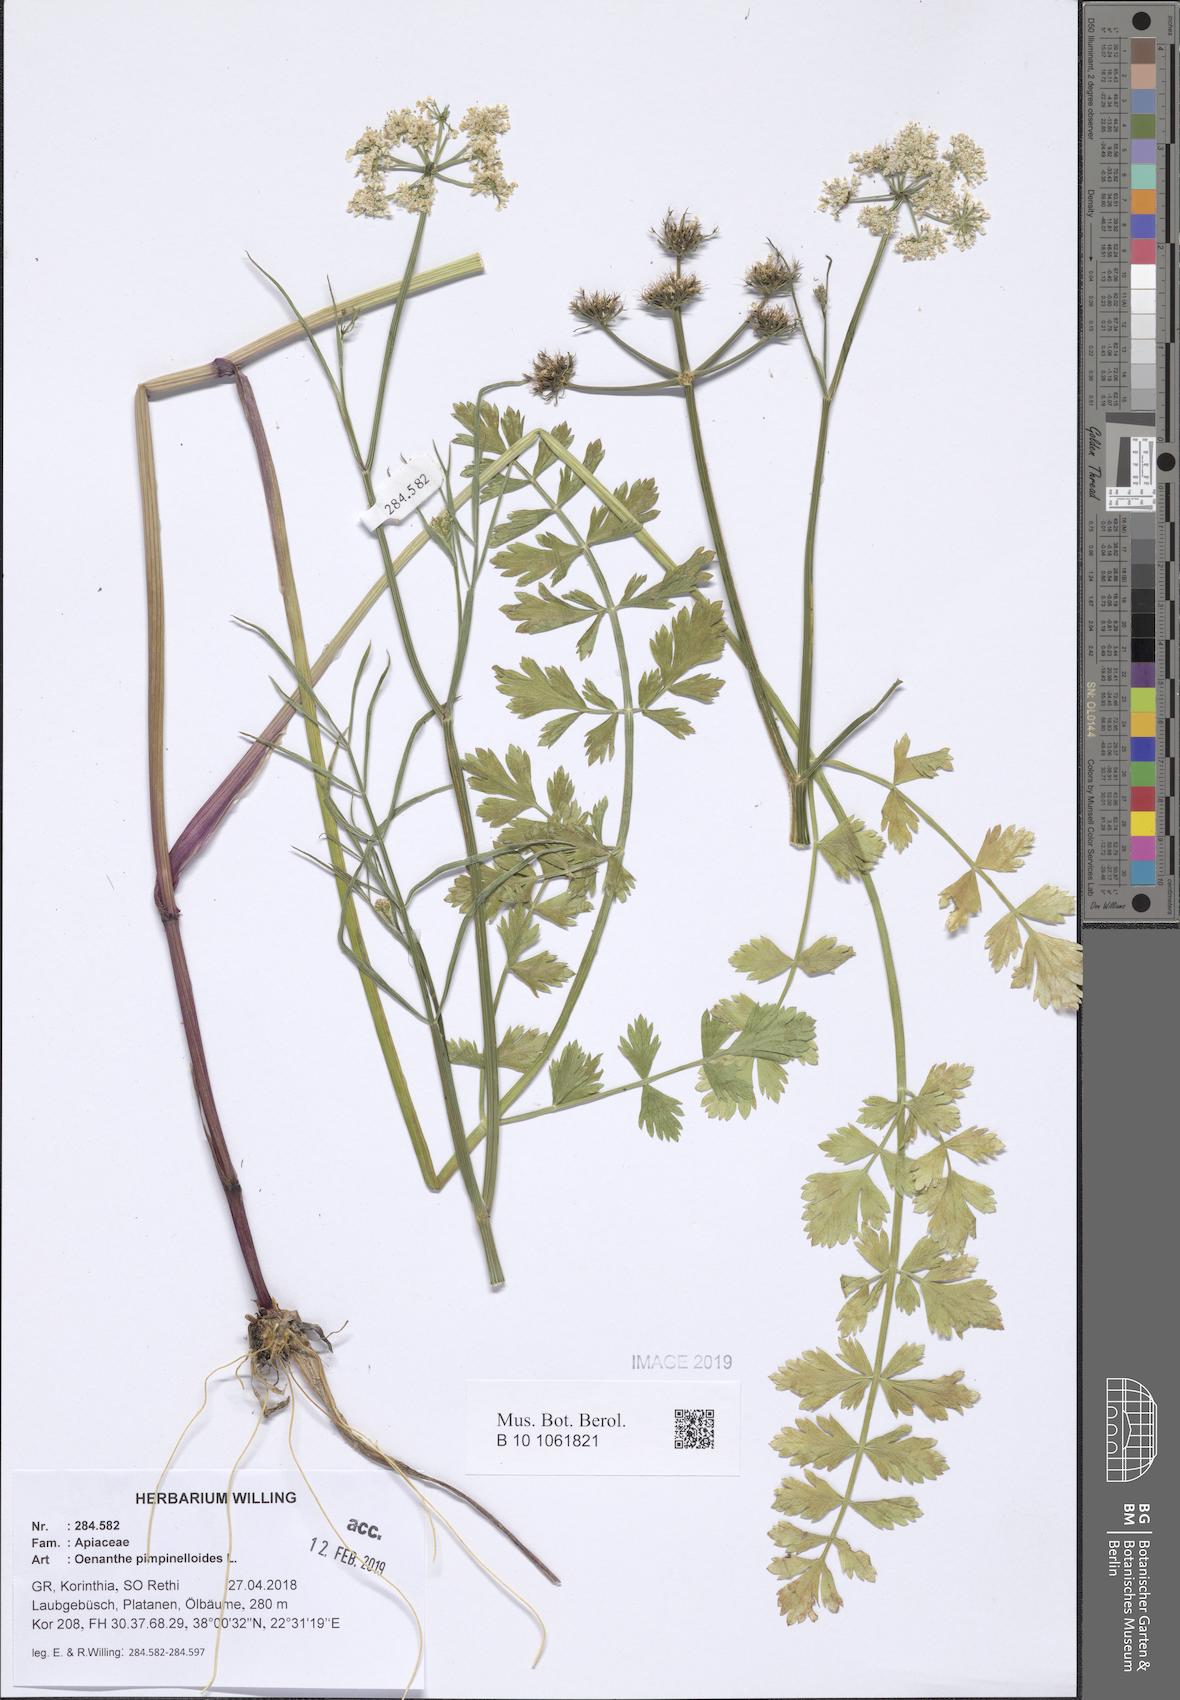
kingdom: Plantae
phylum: Tracheophyta
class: Magnoliopsida
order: Apiales
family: Apiaceae
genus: Oenanthe
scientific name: Oenanthe pimpinelloides
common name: Corky-fruited water-dropwort
